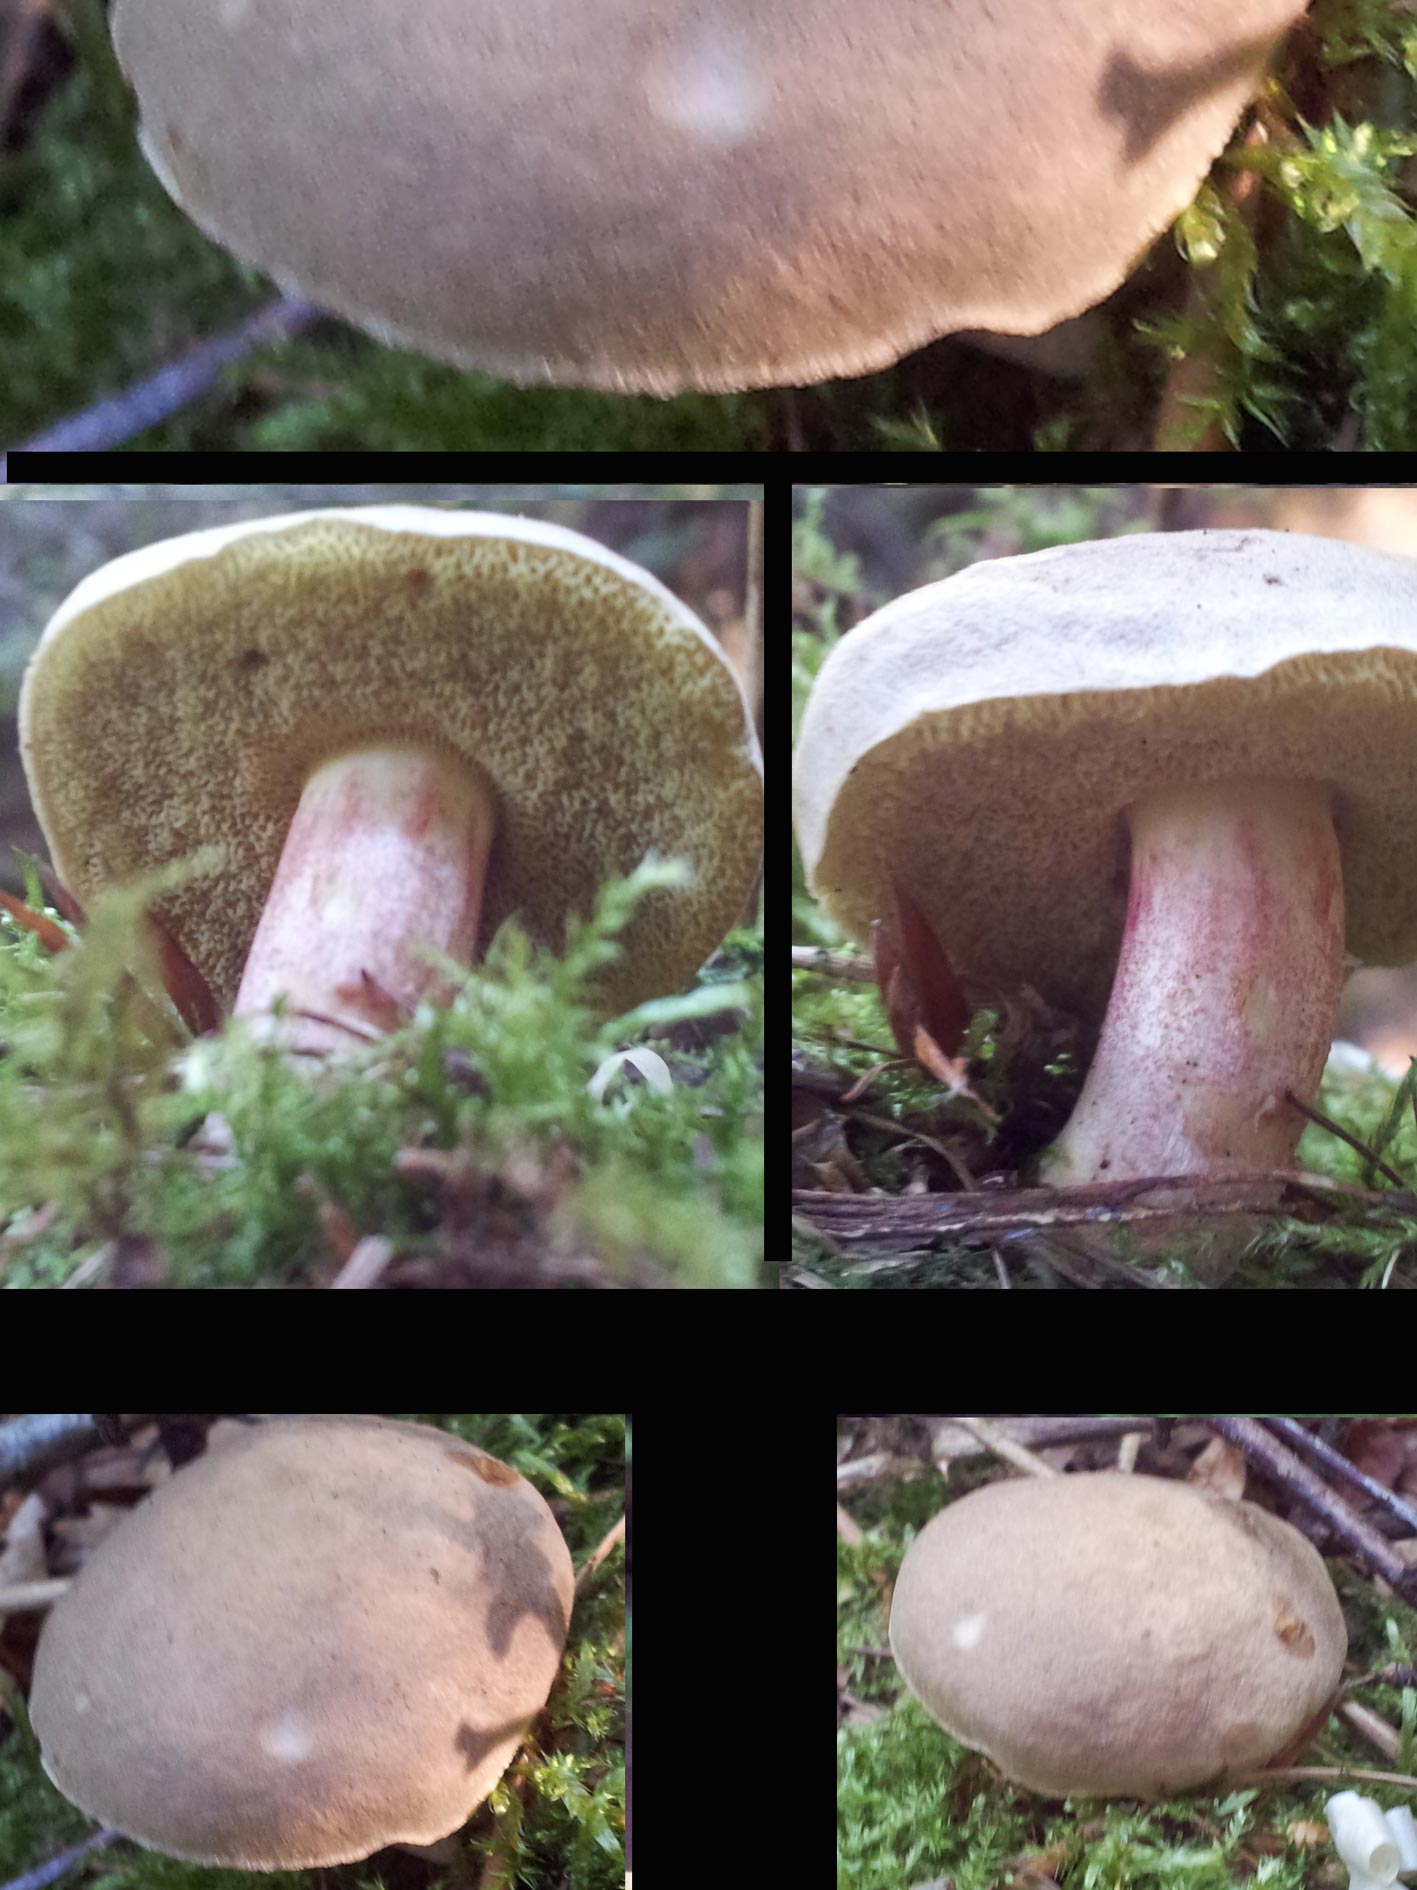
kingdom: Fungi
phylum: Basidiomycota
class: Agaricomycetes
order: Boletales
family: Boletaceae
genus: Xerocomellus
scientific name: Xerocomellus chrysenteron
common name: rødsprukken rørhat
